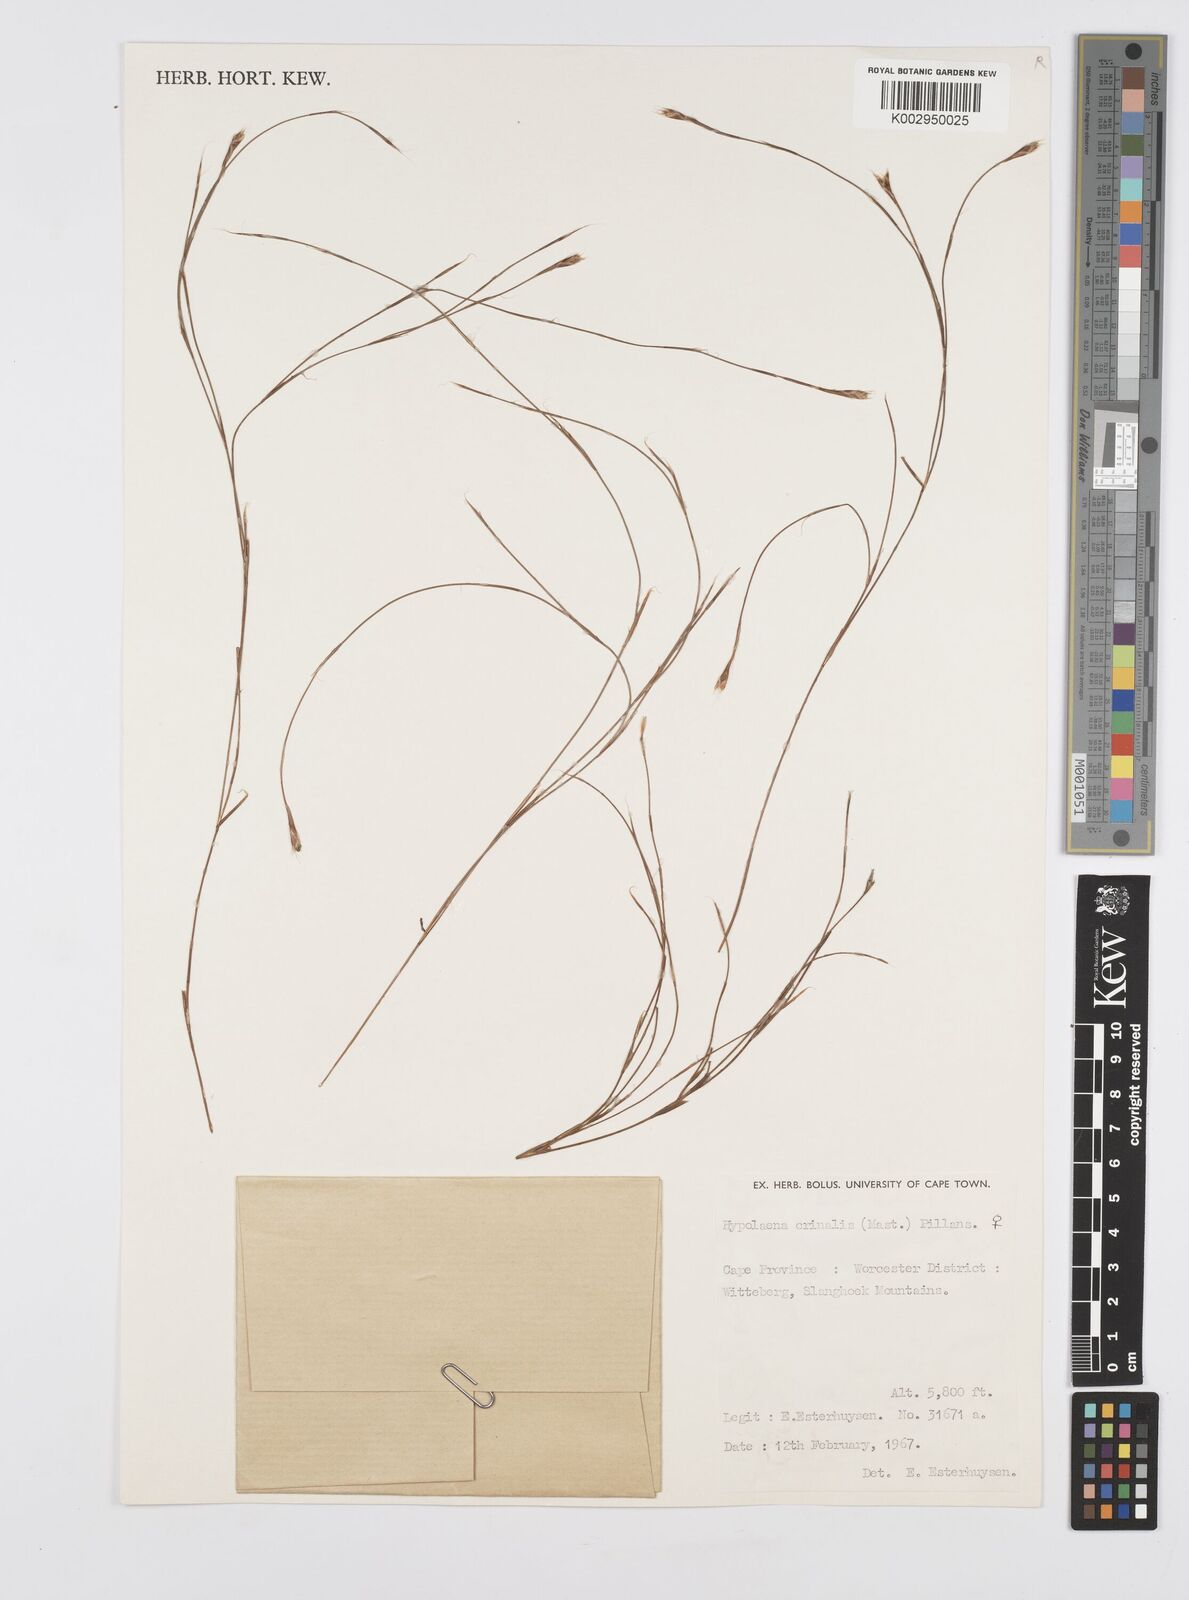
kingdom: Plantae
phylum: Tracheophyta
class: Liliopsida
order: Poales
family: Restionaceae
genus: Anthochortus
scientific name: Anthochortus
